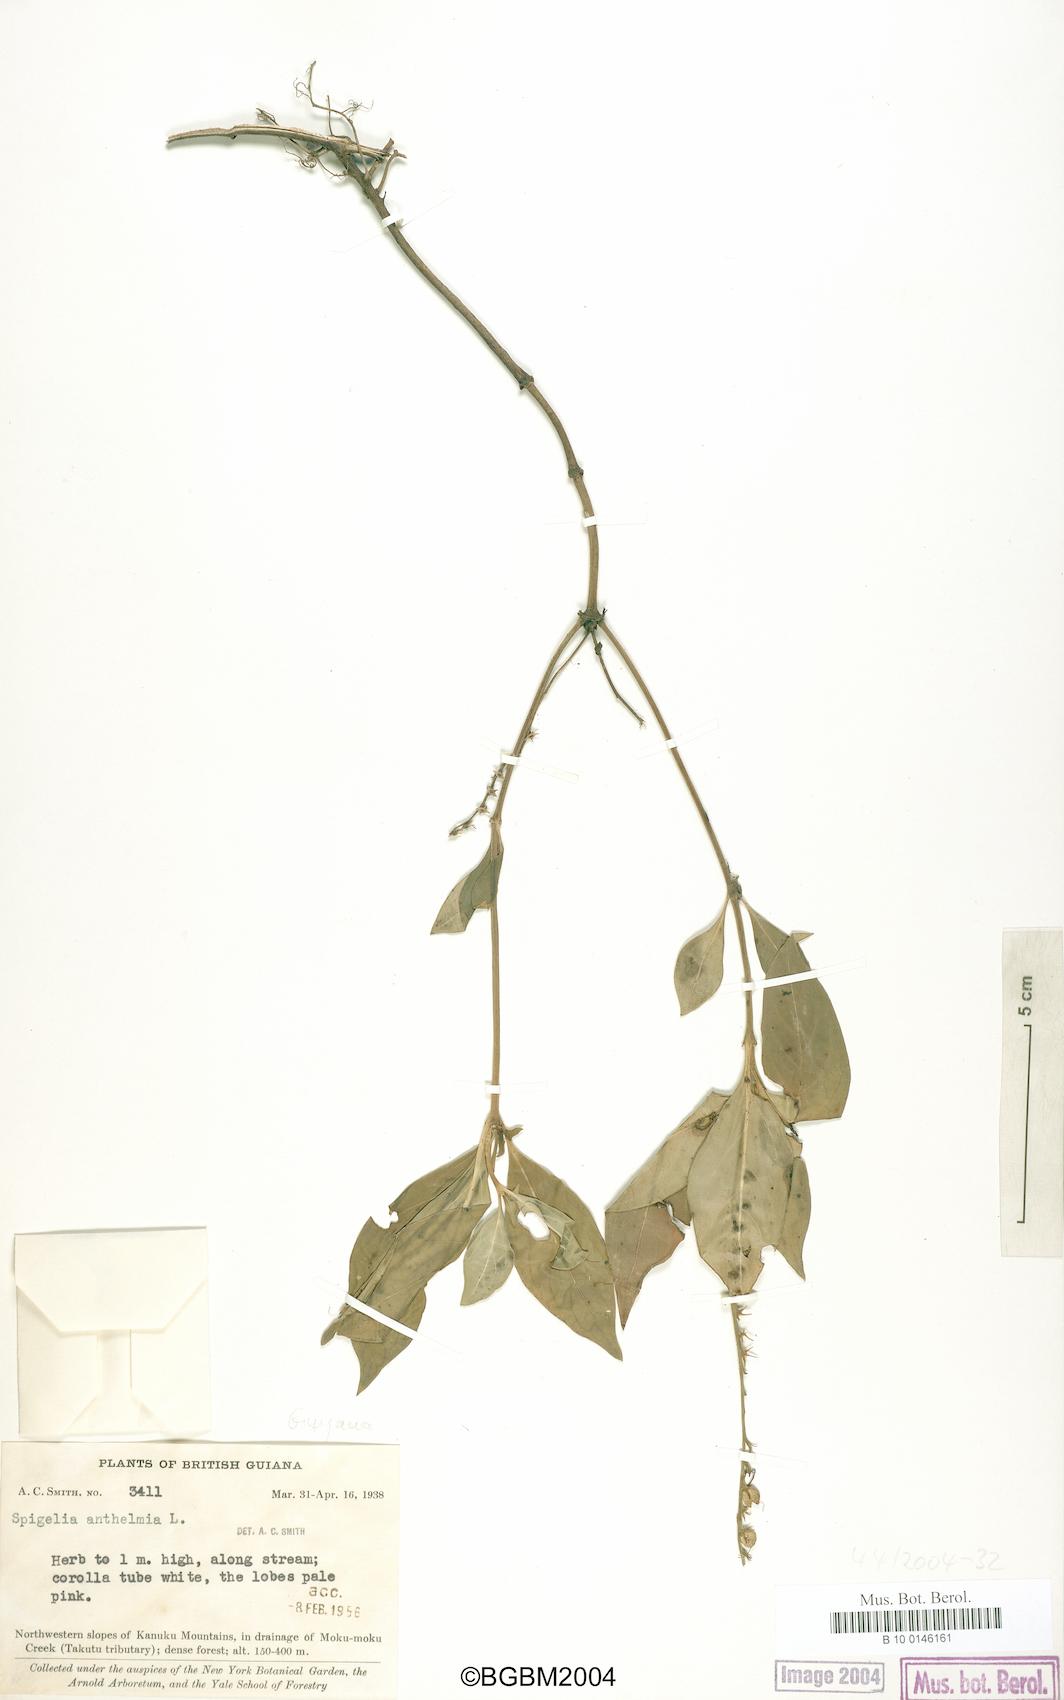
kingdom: Plantae
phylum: Tracheophyta
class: Magnoliopsida
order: Gentianales
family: Loganiaceae
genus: Spigelia
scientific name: Spigelia anthelmia
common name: West indian-pink
